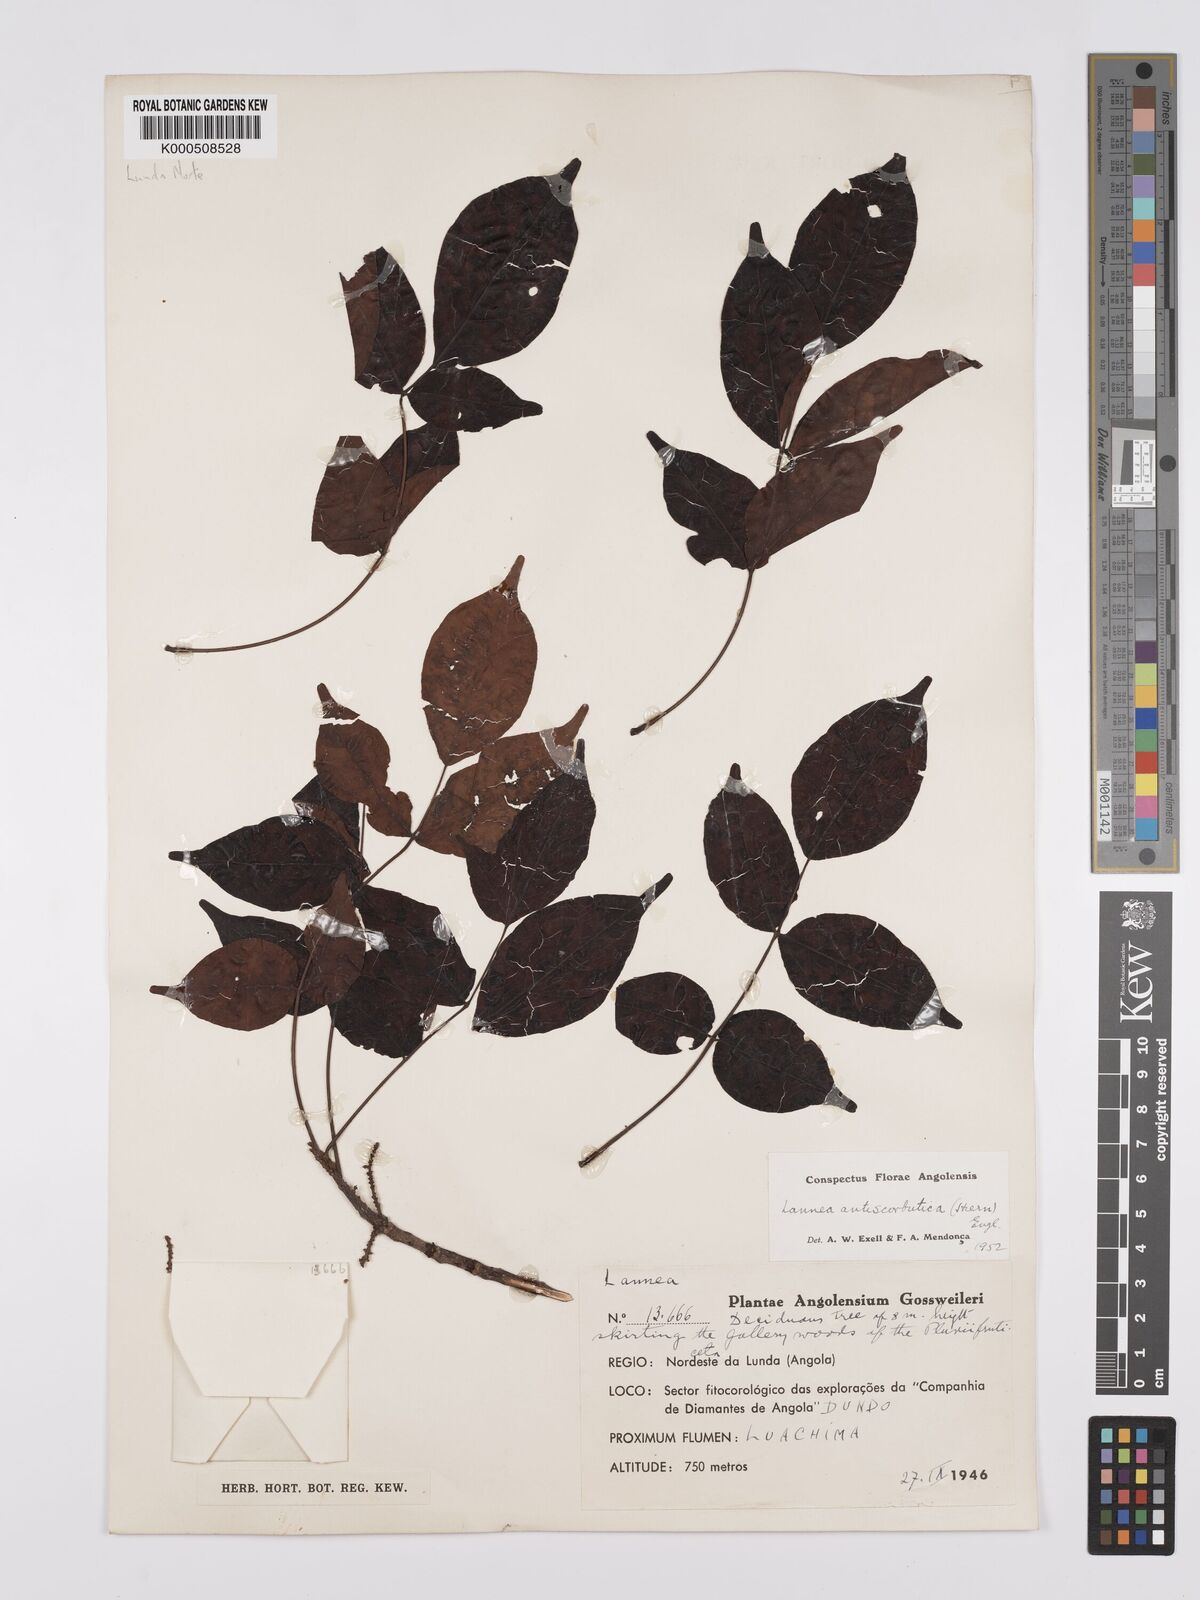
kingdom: Plantae
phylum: Tracheophyta
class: Magnoliopsida
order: Sapindales
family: Anacardiaceae
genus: Lannea
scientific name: Lannea antiscorbutica
